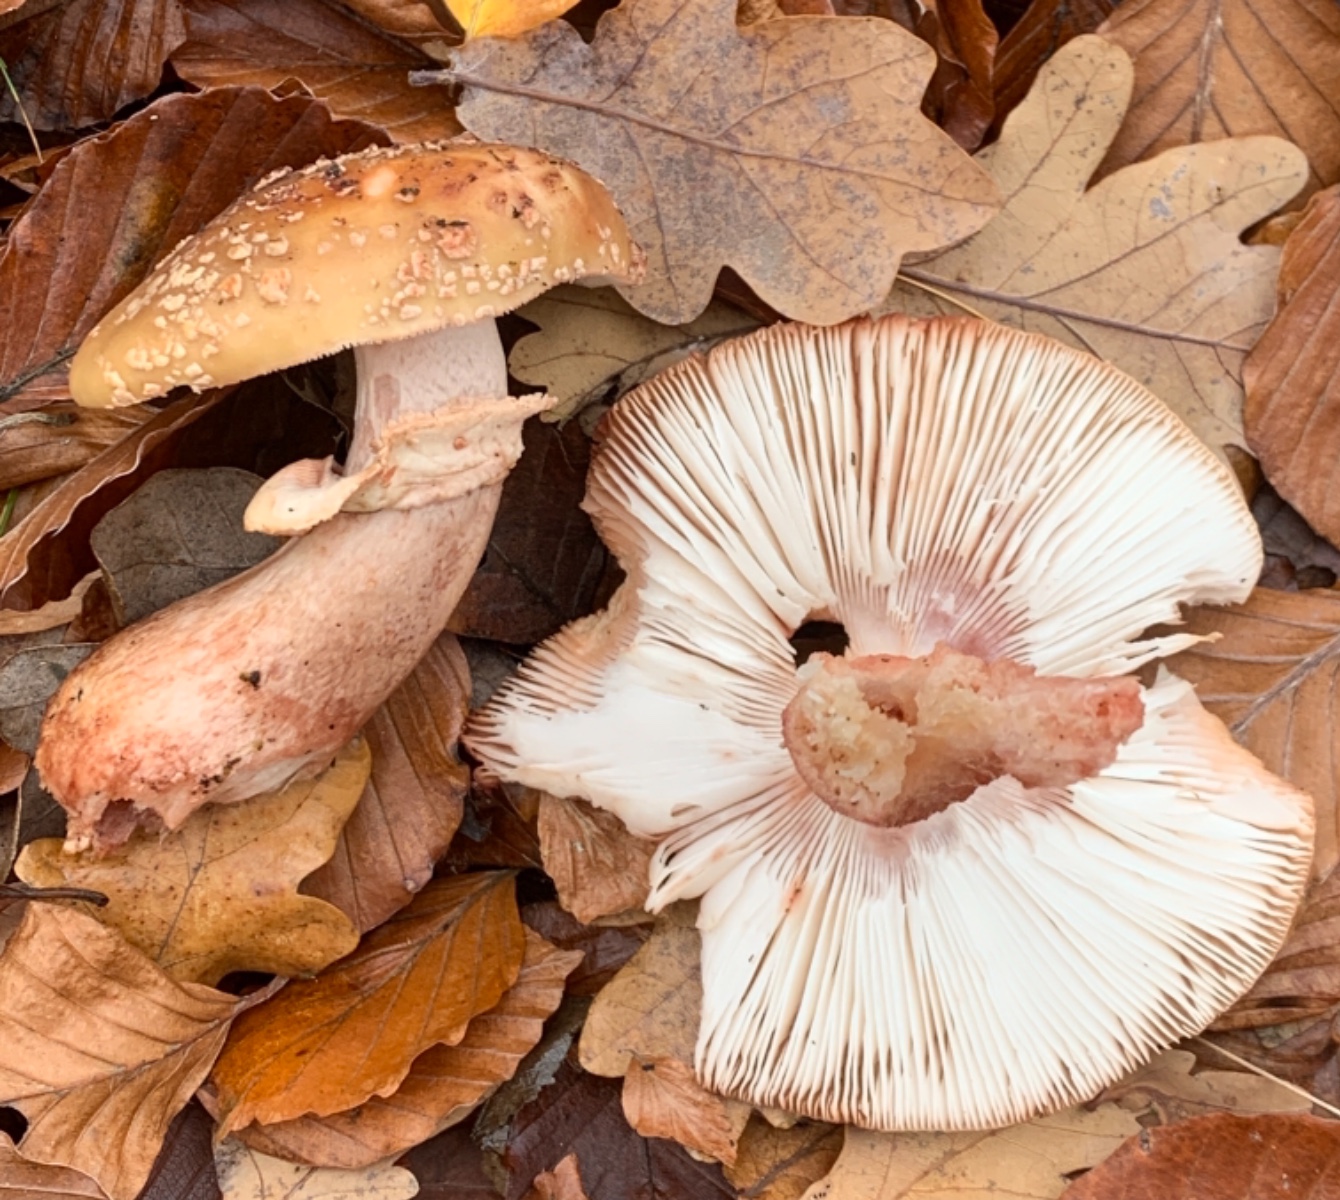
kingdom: Fungi
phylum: Basidiomycota
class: Agaricomycetes
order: Agaricales
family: Amanitaceae
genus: Amanita
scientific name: Amanita rubescens
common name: rødmende fluesvamp
